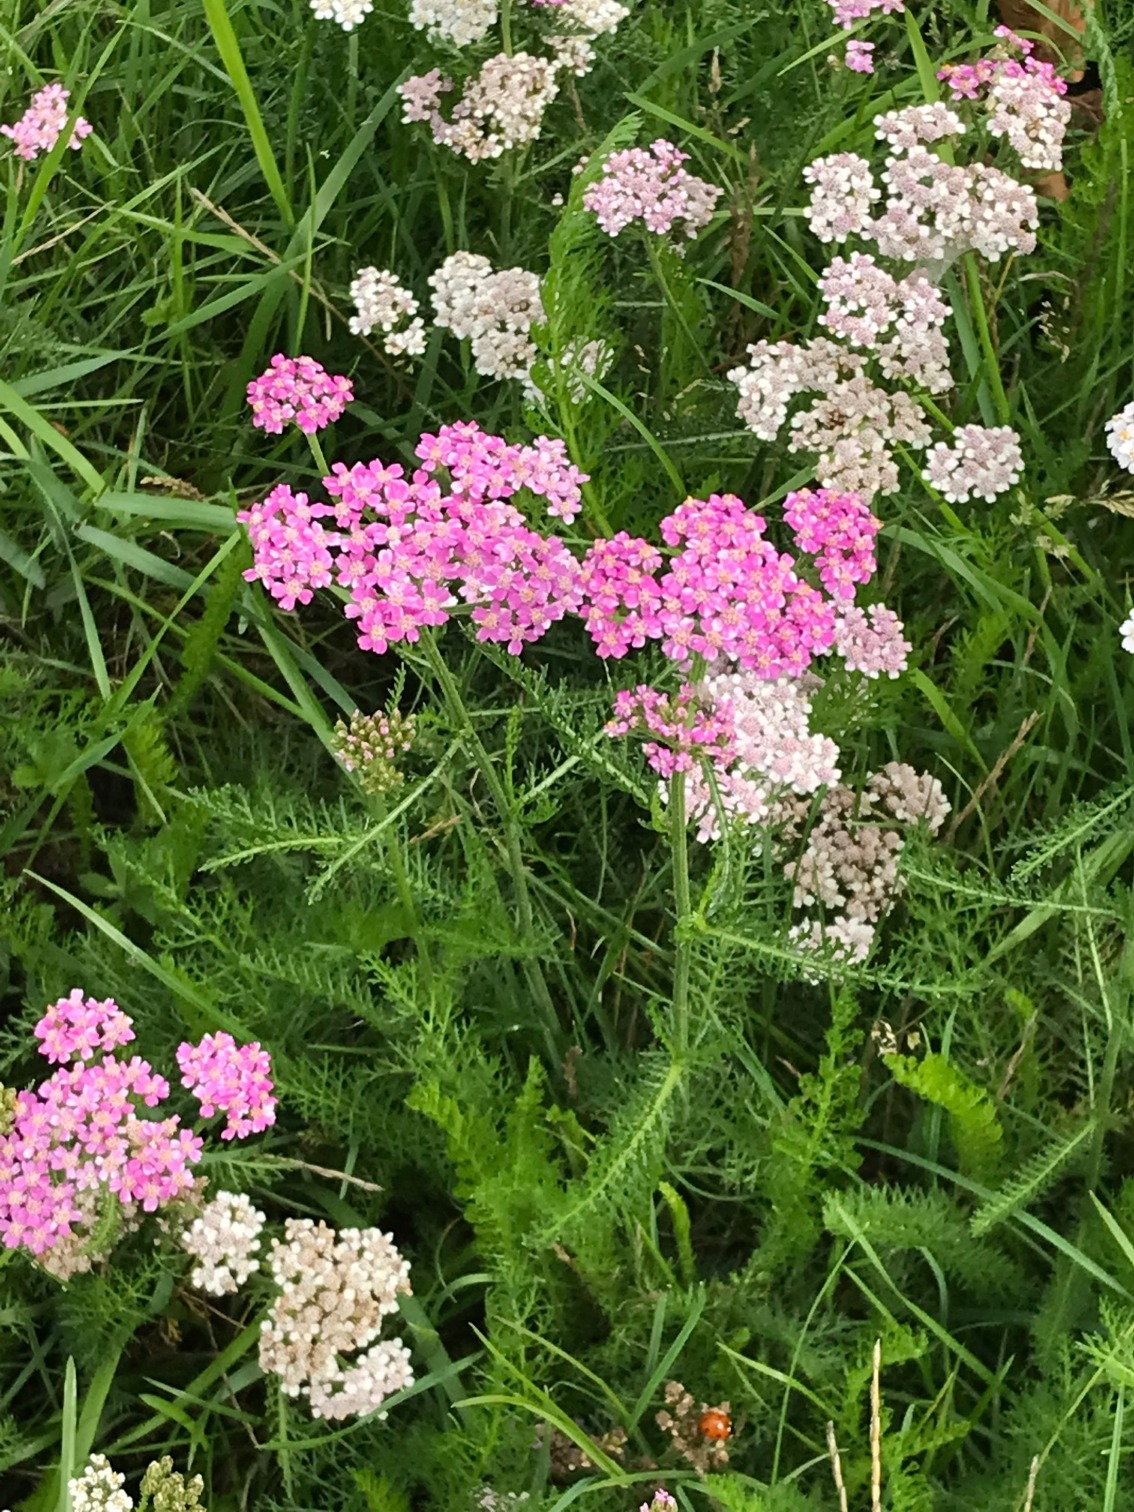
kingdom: Plantae
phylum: Tracheophyta
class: Magnoliopsida
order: Asterales
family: Asteraceae
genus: Achillea
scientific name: Achillea millefolium
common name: Almindelig røllike
